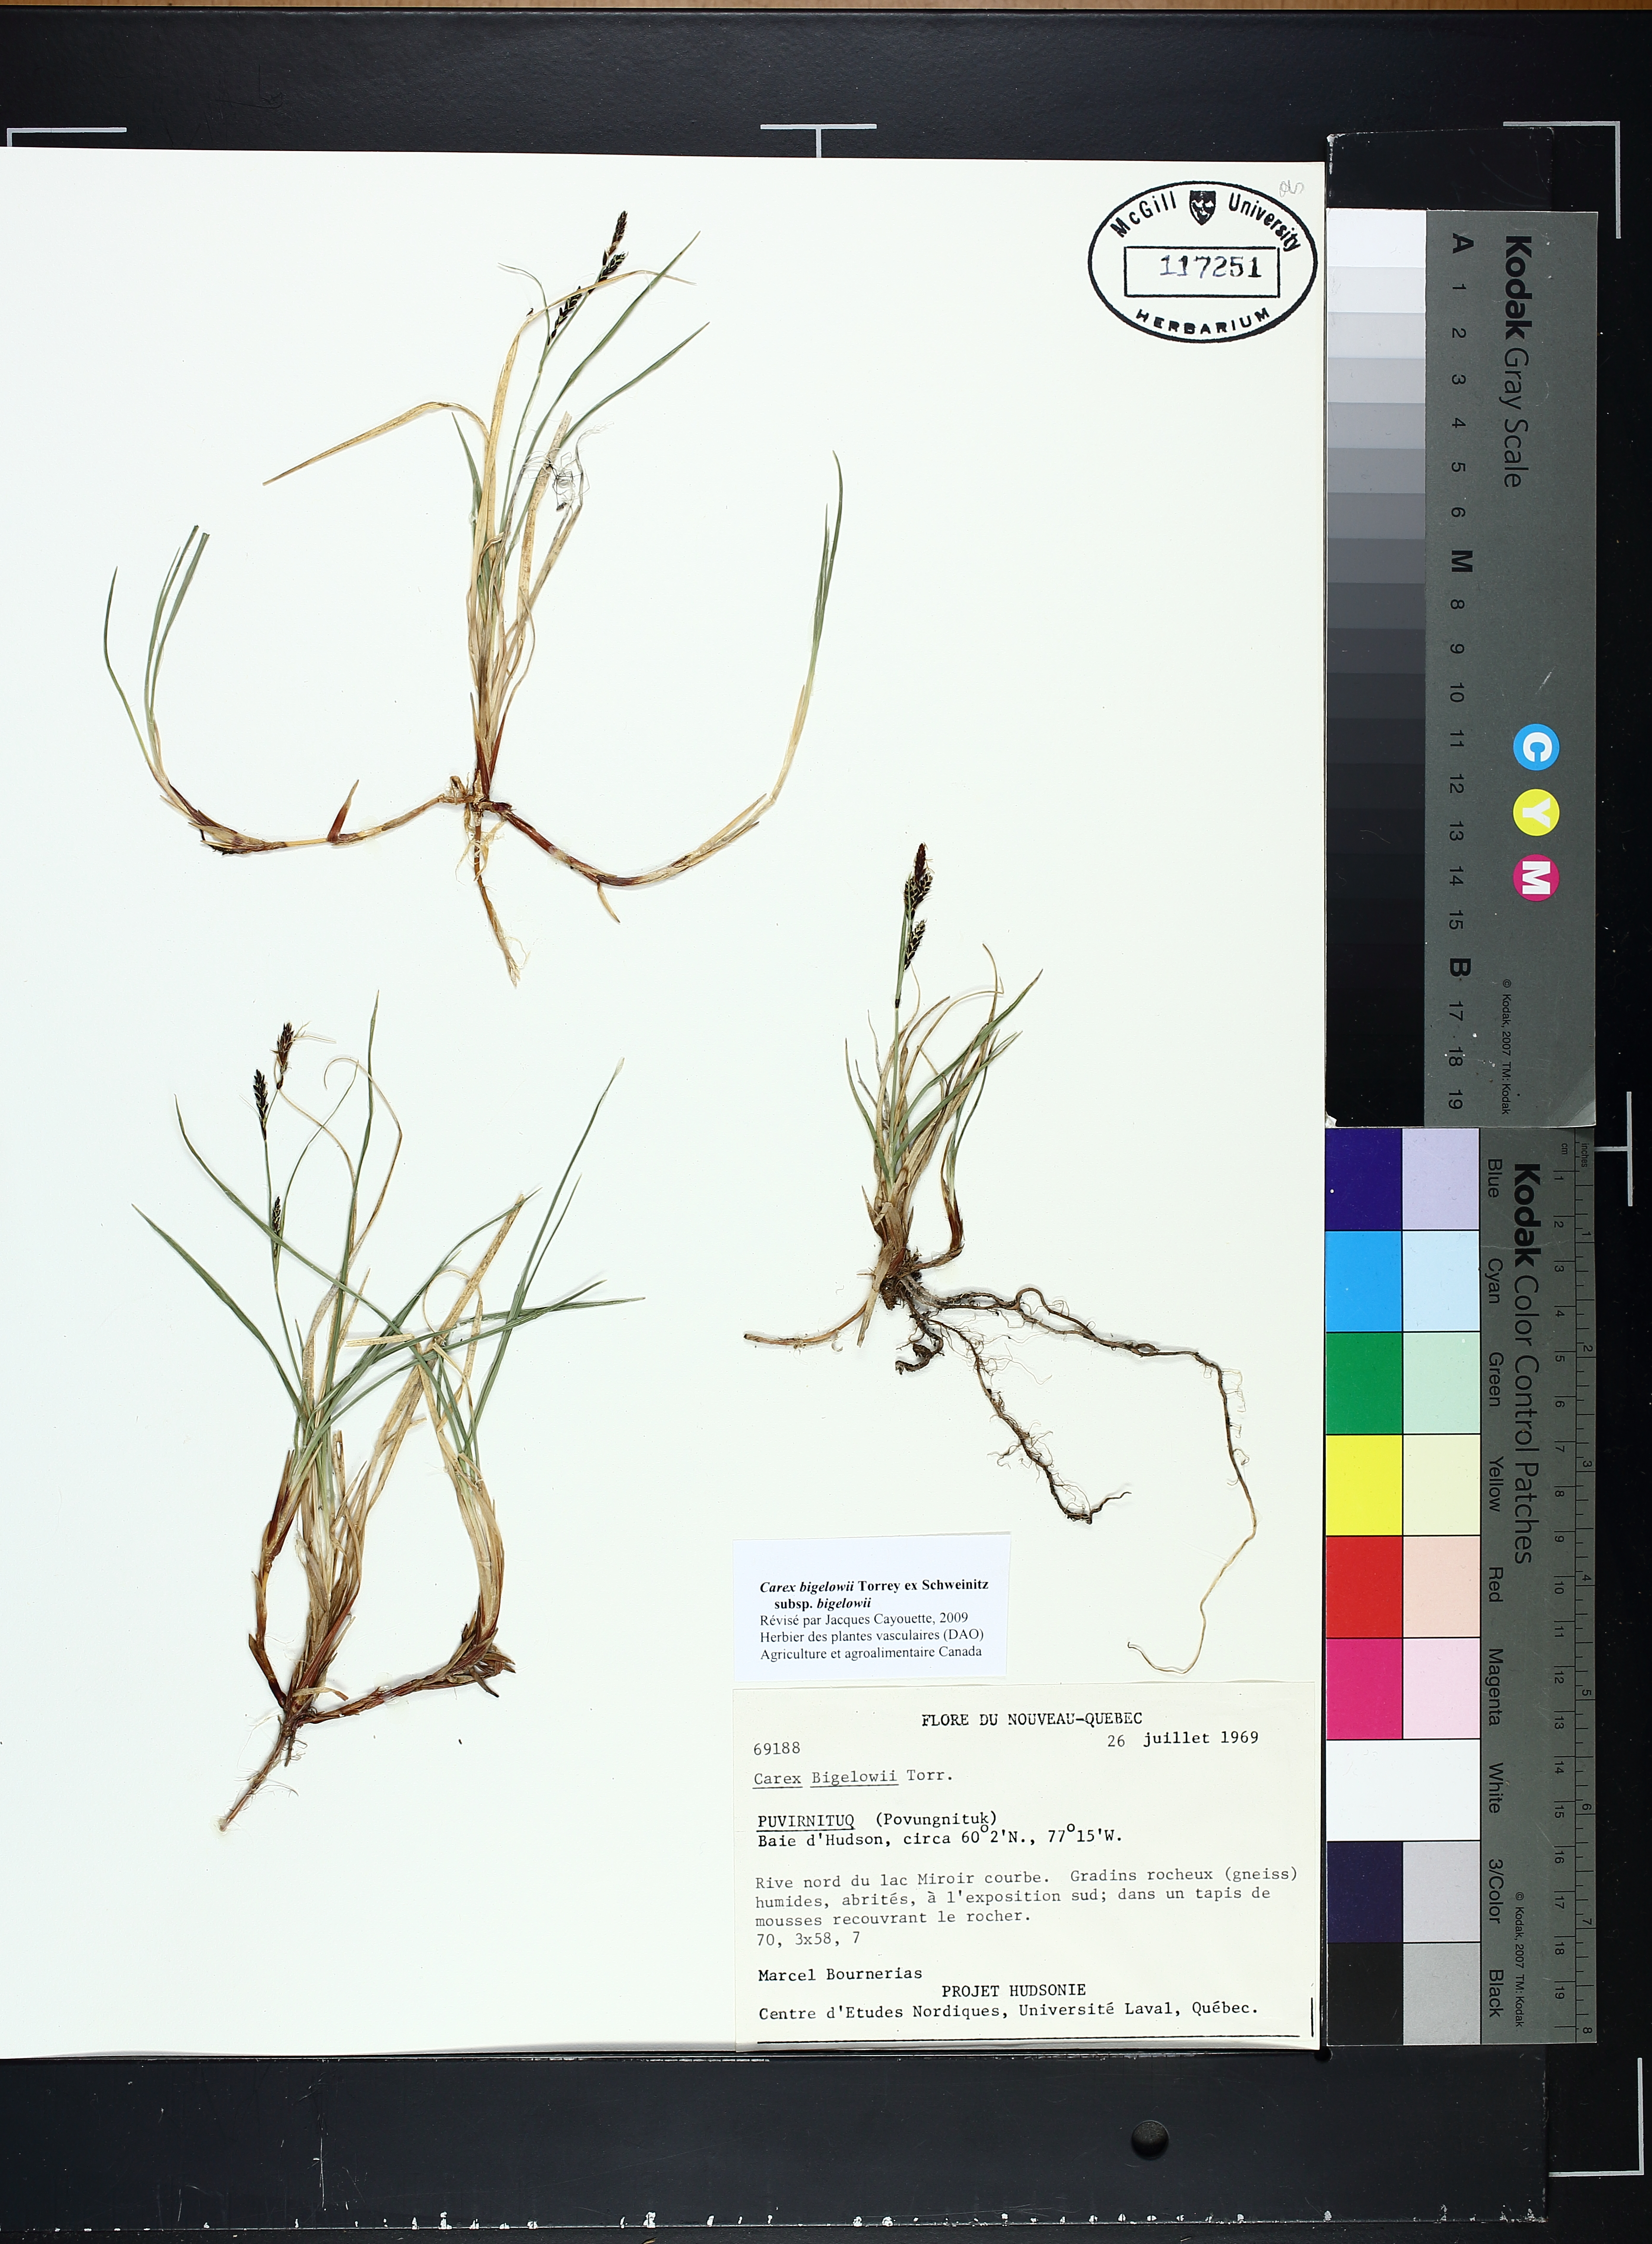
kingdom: Plantae
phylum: Tracheophyta
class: Liliopsida
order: Poales
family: Cyperaceae
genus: Carex
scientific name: Carex bigelowii
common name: Stiff sedge
